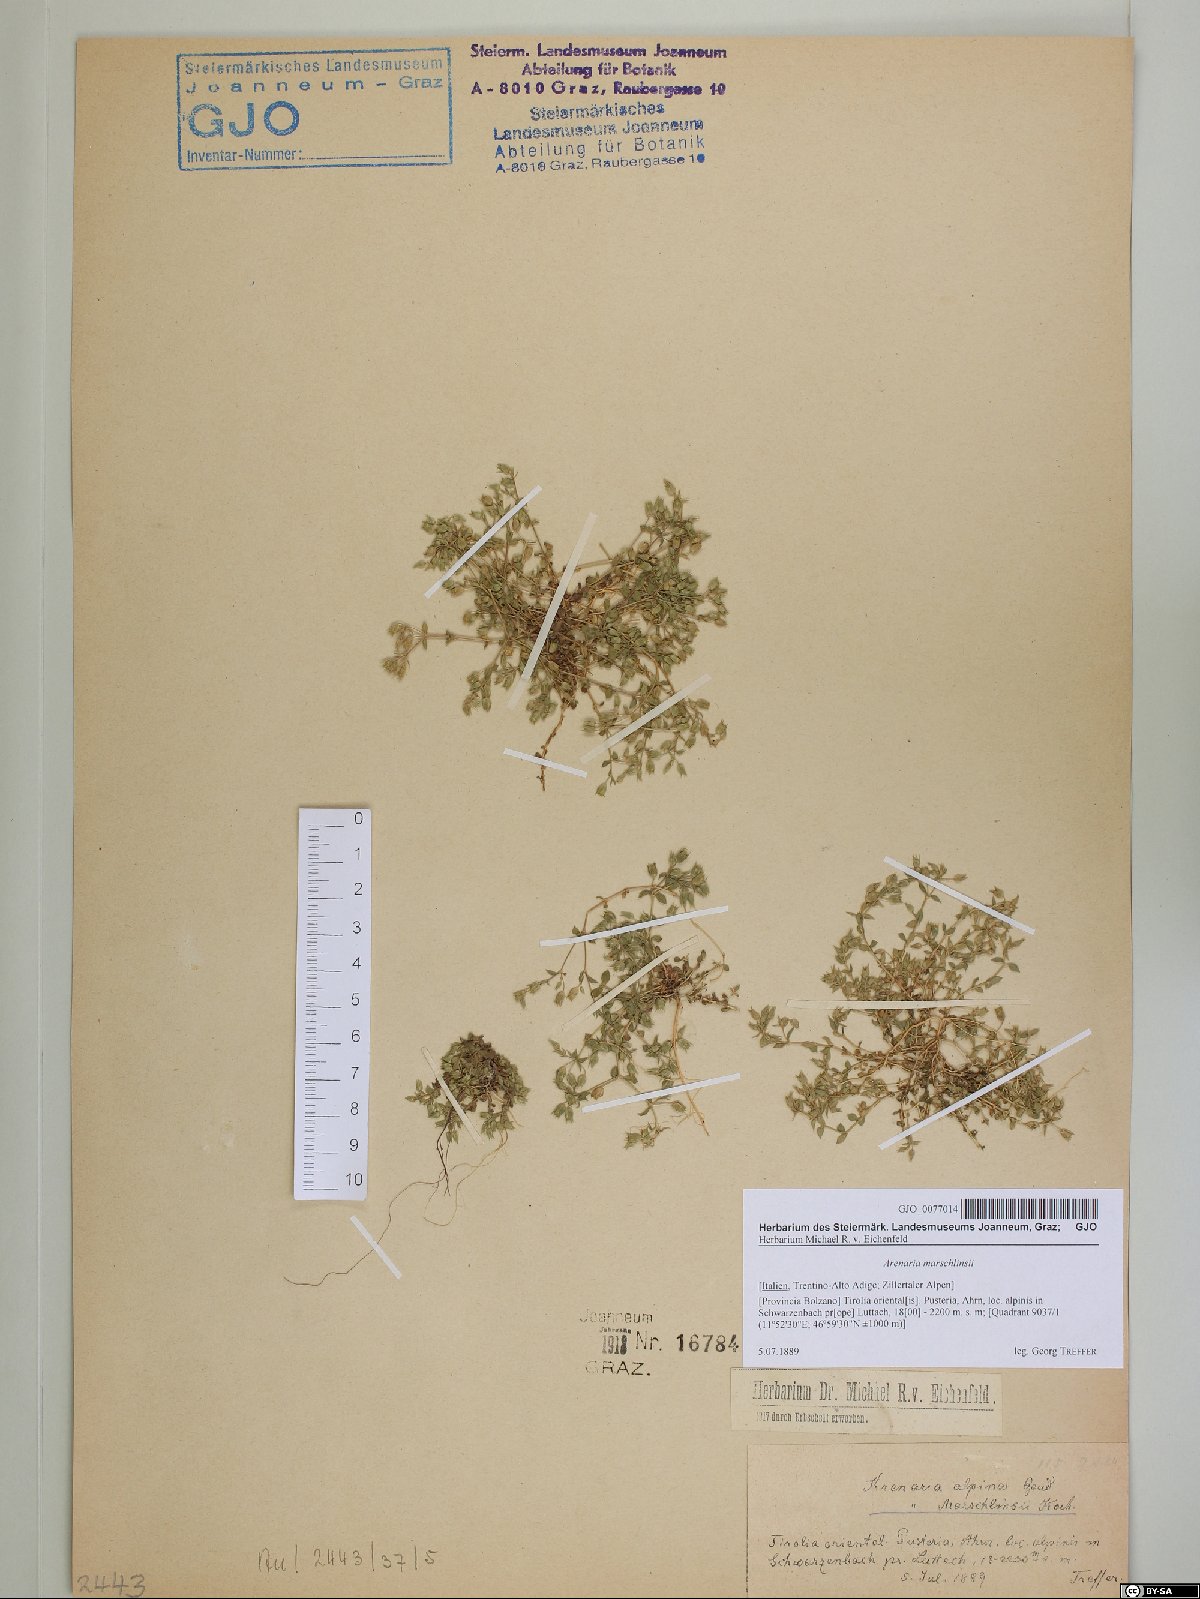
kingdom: Plantae
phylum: Tracheophyta
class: Magnoliopsida
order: Caryophyllales
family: Caryophyllaceae
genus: Arenaria
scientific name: Arenaria marschlinsii
